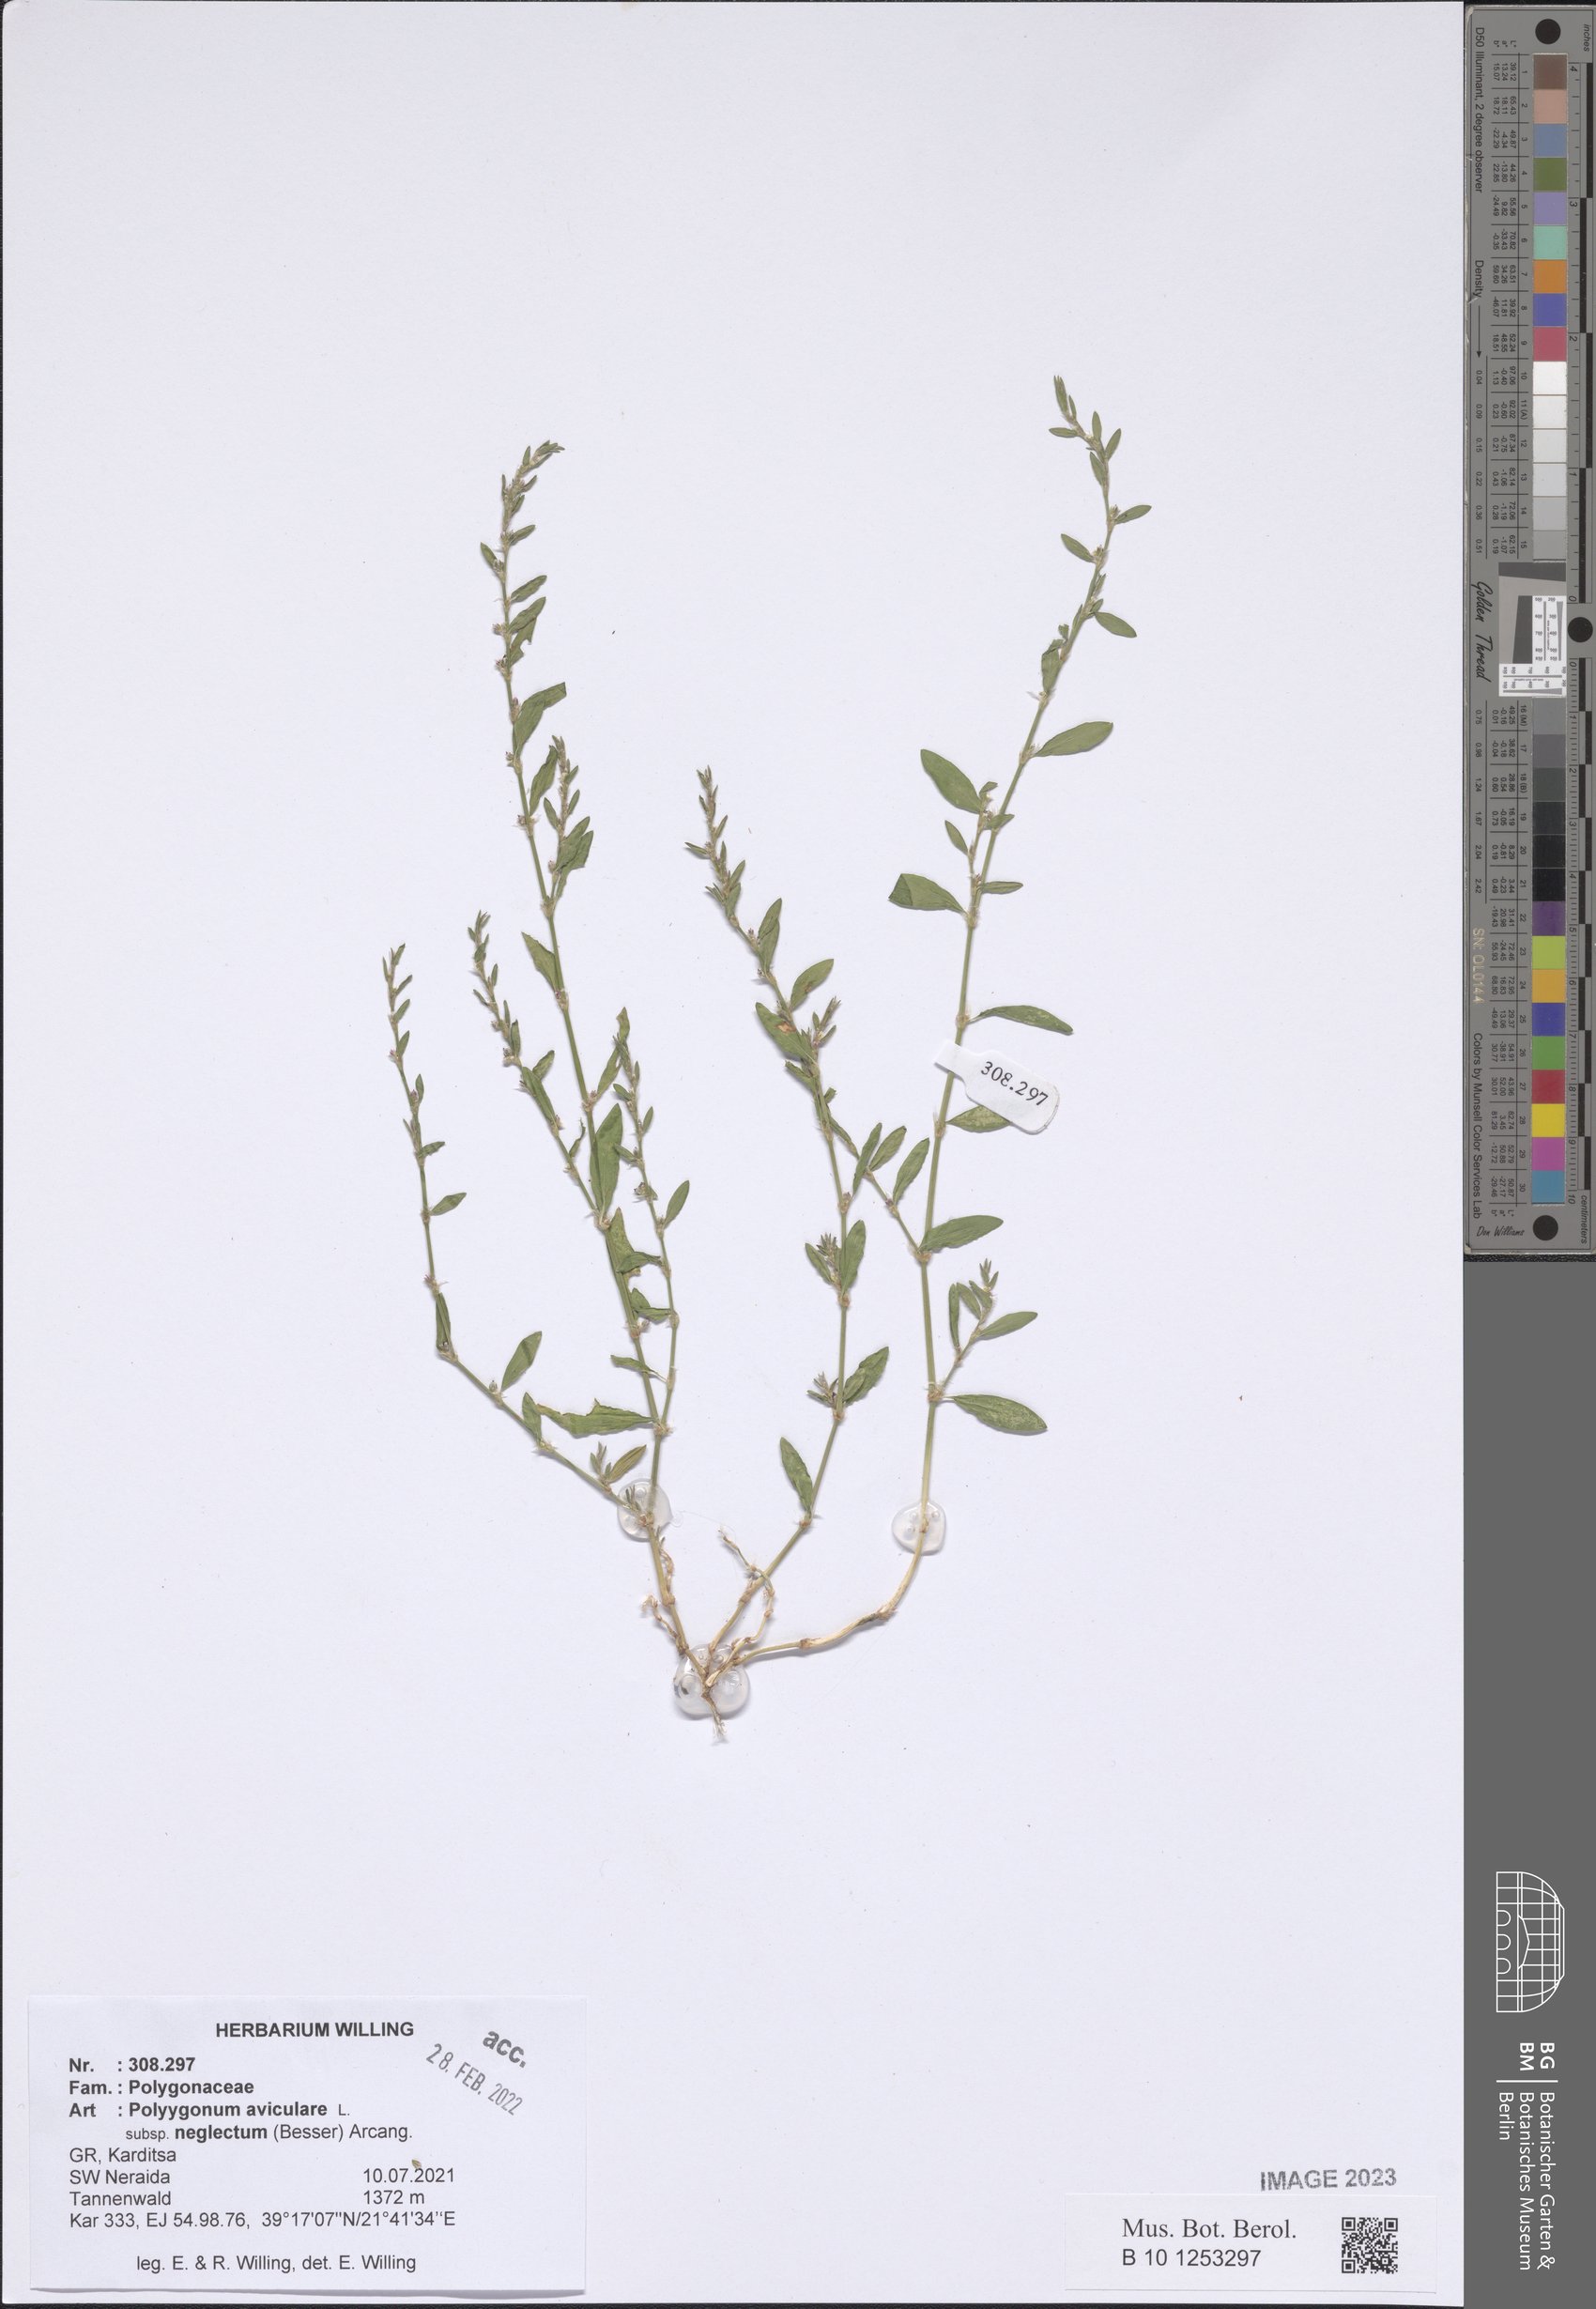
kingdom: Plantae
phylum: Tracheophyta
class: Magnoliopsida
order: Caryophyllales
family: Polygonaceae
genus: Polygonum
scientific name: Polygonum aviculare
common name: Prostrate knotweed
